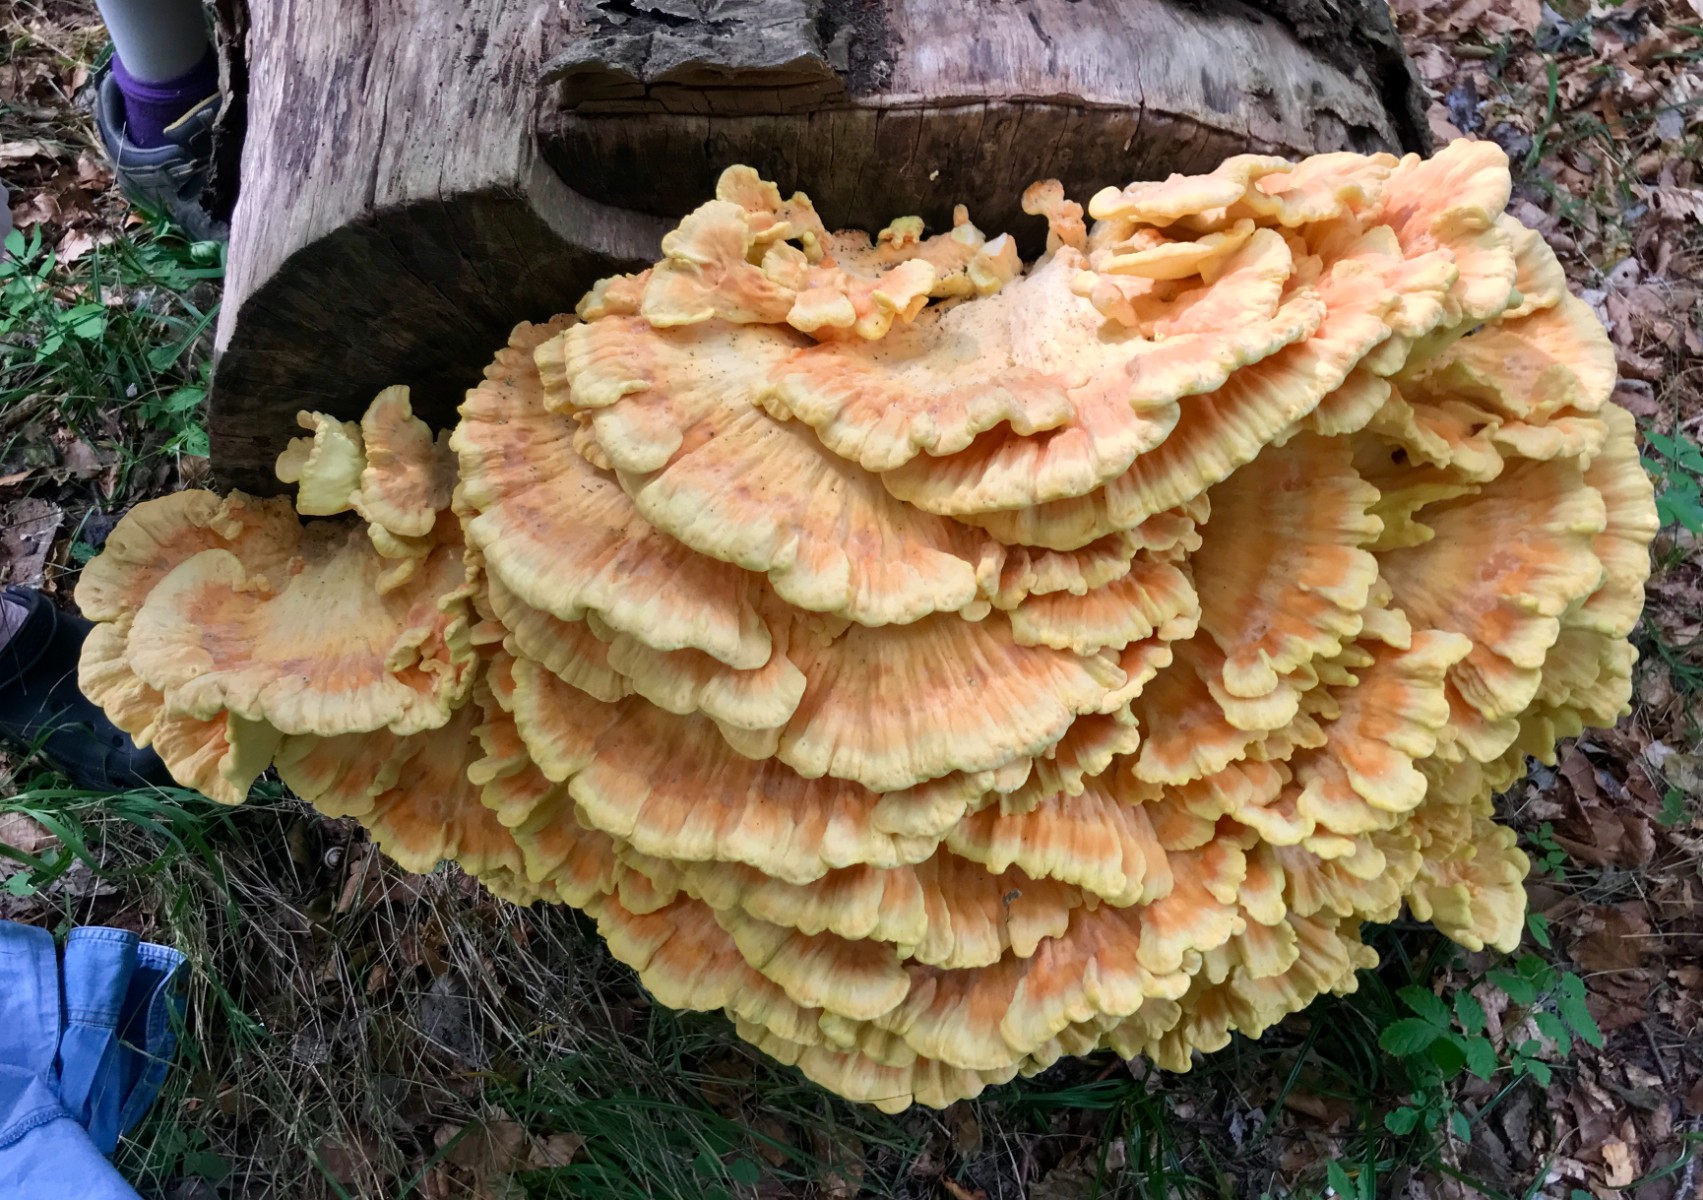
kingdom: Fungi
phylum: Basidiomycota
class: Agaricomycetes
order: Polyporales
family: Laetiporaceae
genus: Laetiporus
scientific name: Laetiporus sulphureus
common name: svovlporesvamp
